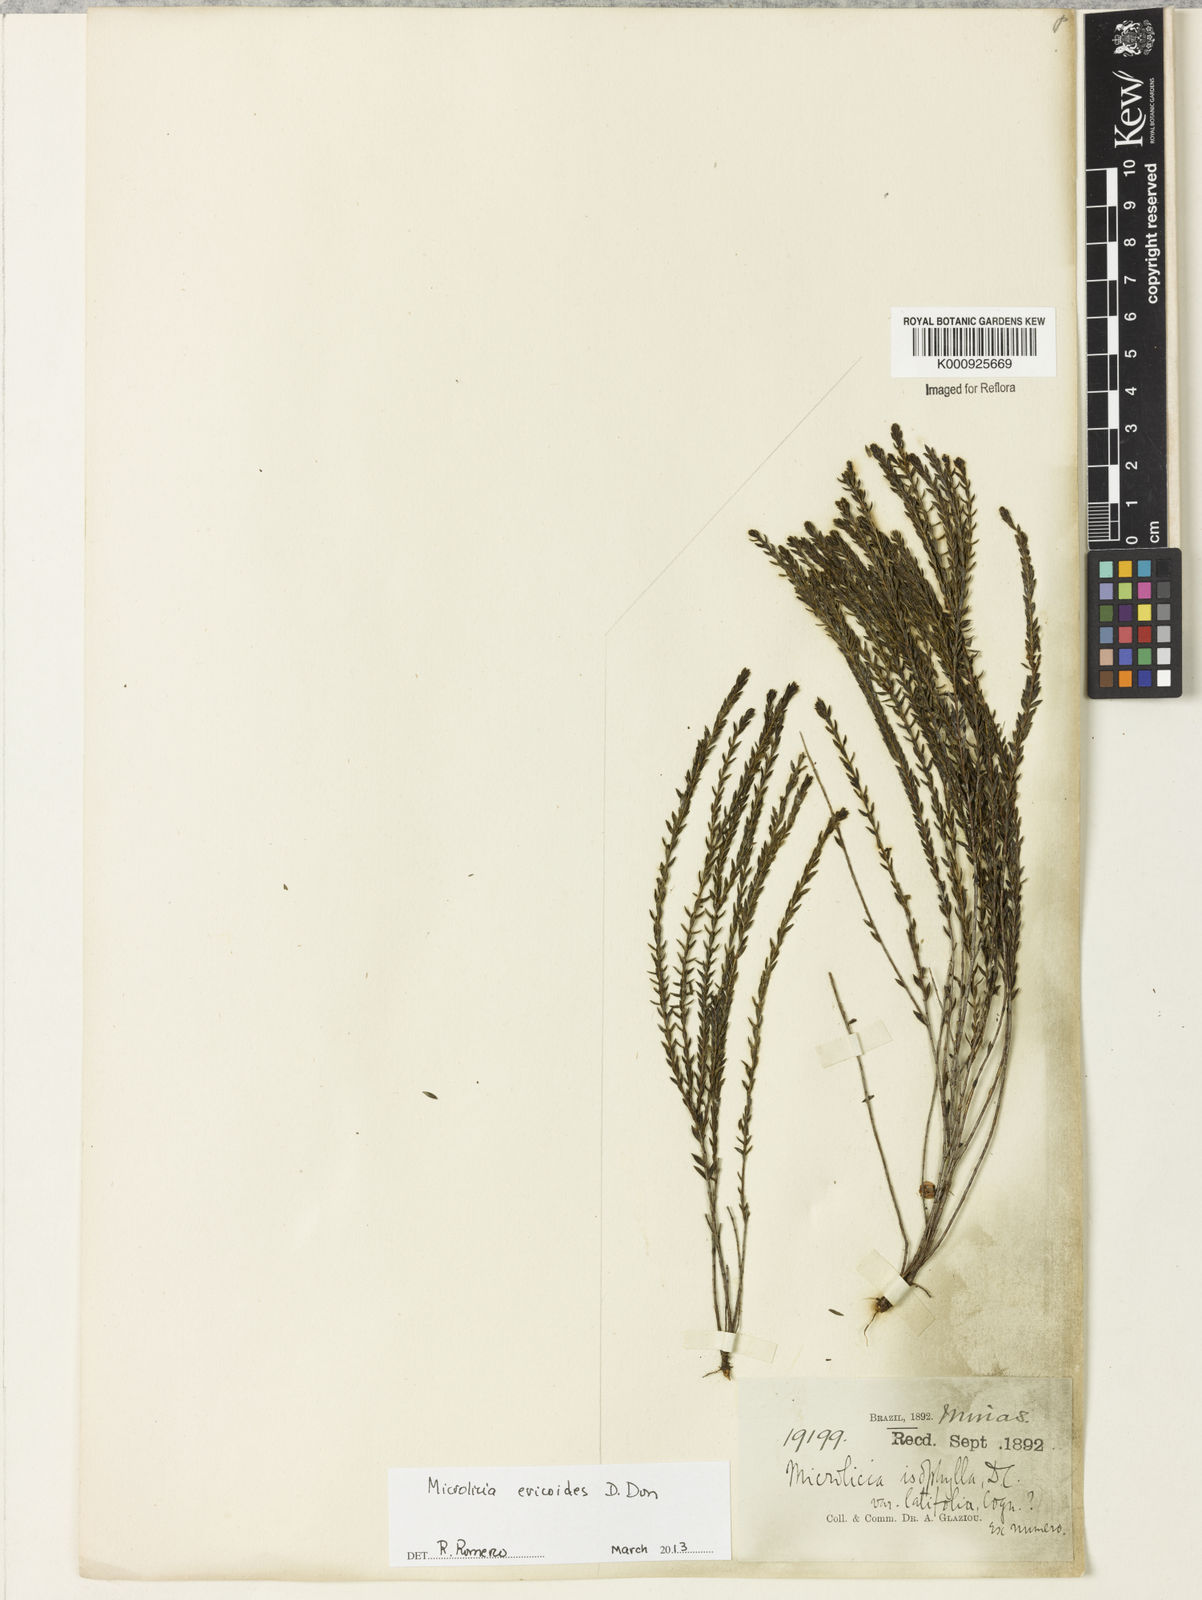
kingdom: Plantae
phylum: Tracheophyta
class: Magnoliopsida
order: Myrtales
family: Melastomataceae
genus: Microlicia
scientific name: Microlicia ericoides
